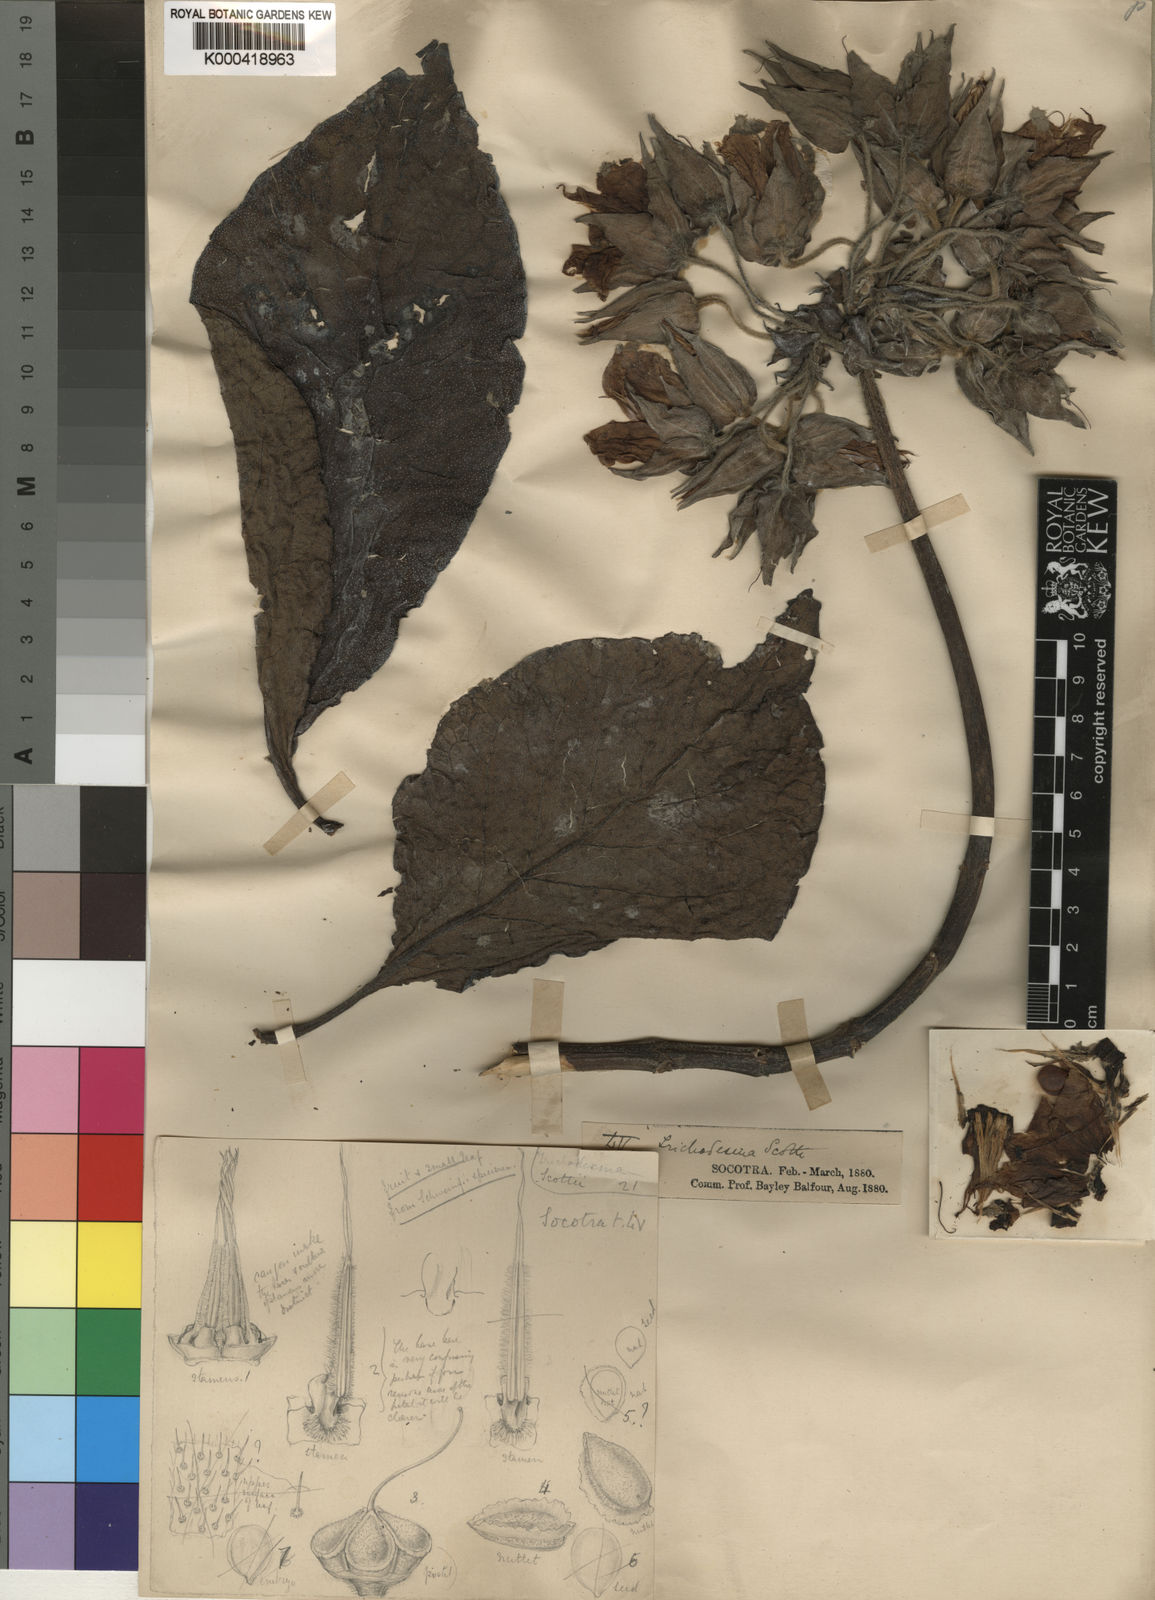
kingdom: Plantae
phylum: Tracheophyta
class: Magnoliopsida
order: Boraginales
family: Boraginaceae
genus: Trichodesma
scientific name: Trichodesma scottii
